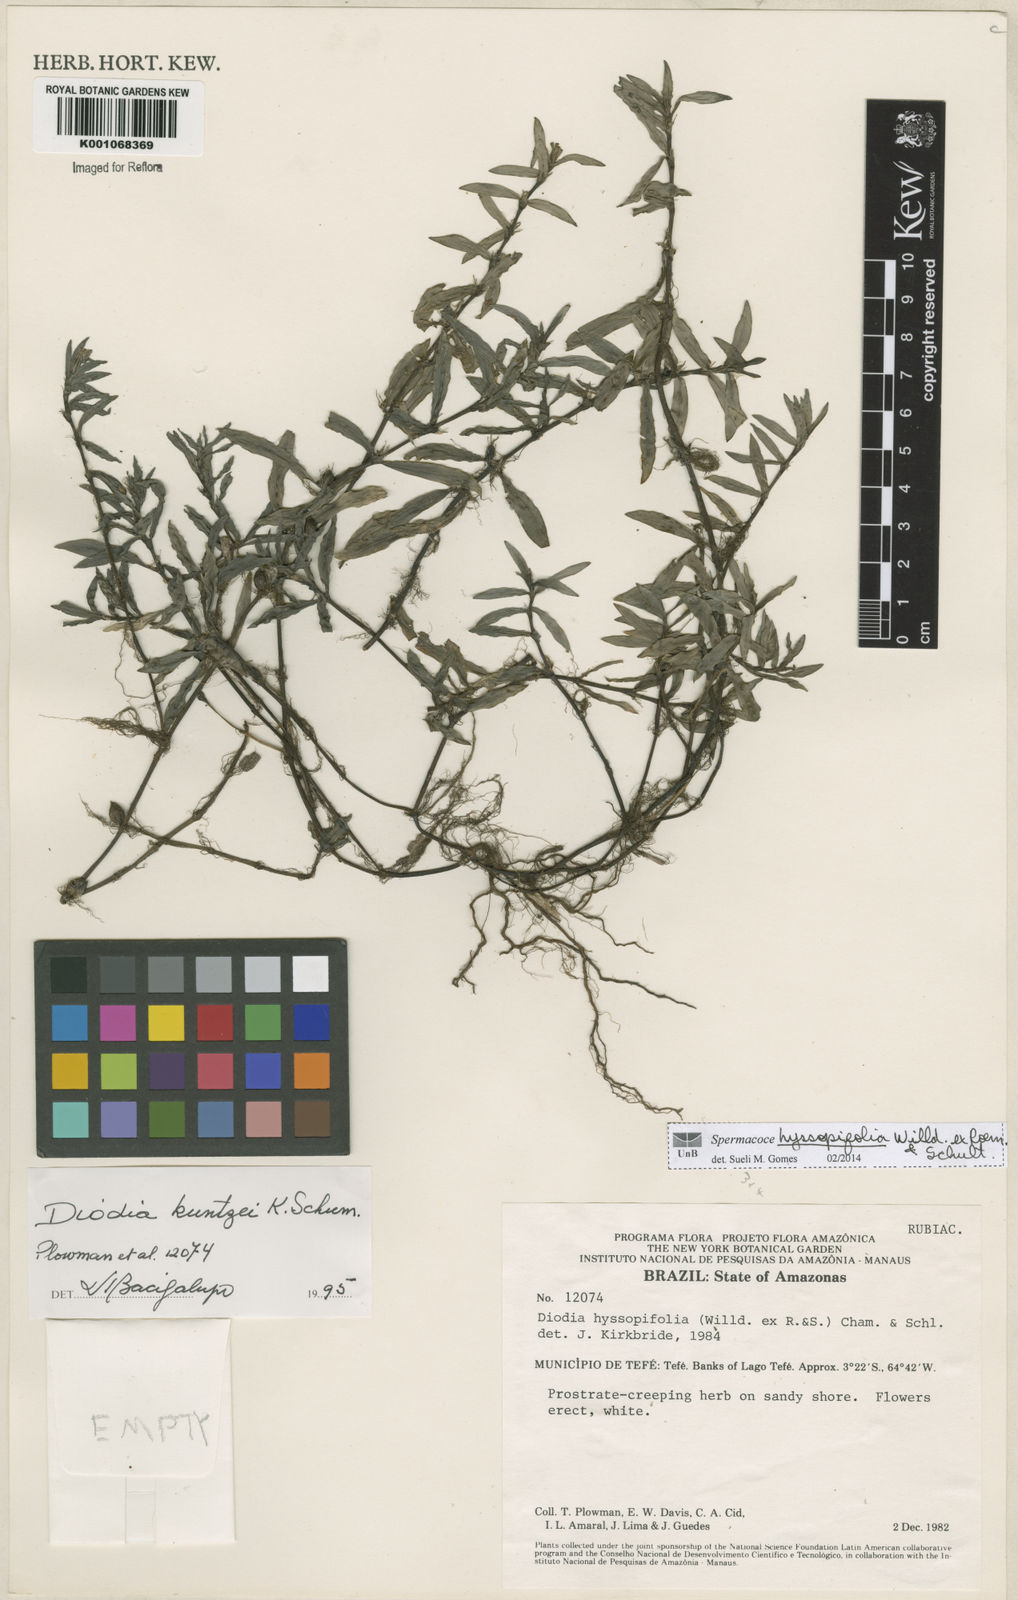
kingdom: Plantae
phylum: Tracheophyta
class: Magnoliopsida
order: Gentianales
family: Rubiaceae
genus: Spermacoce
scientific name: Spermacoce
